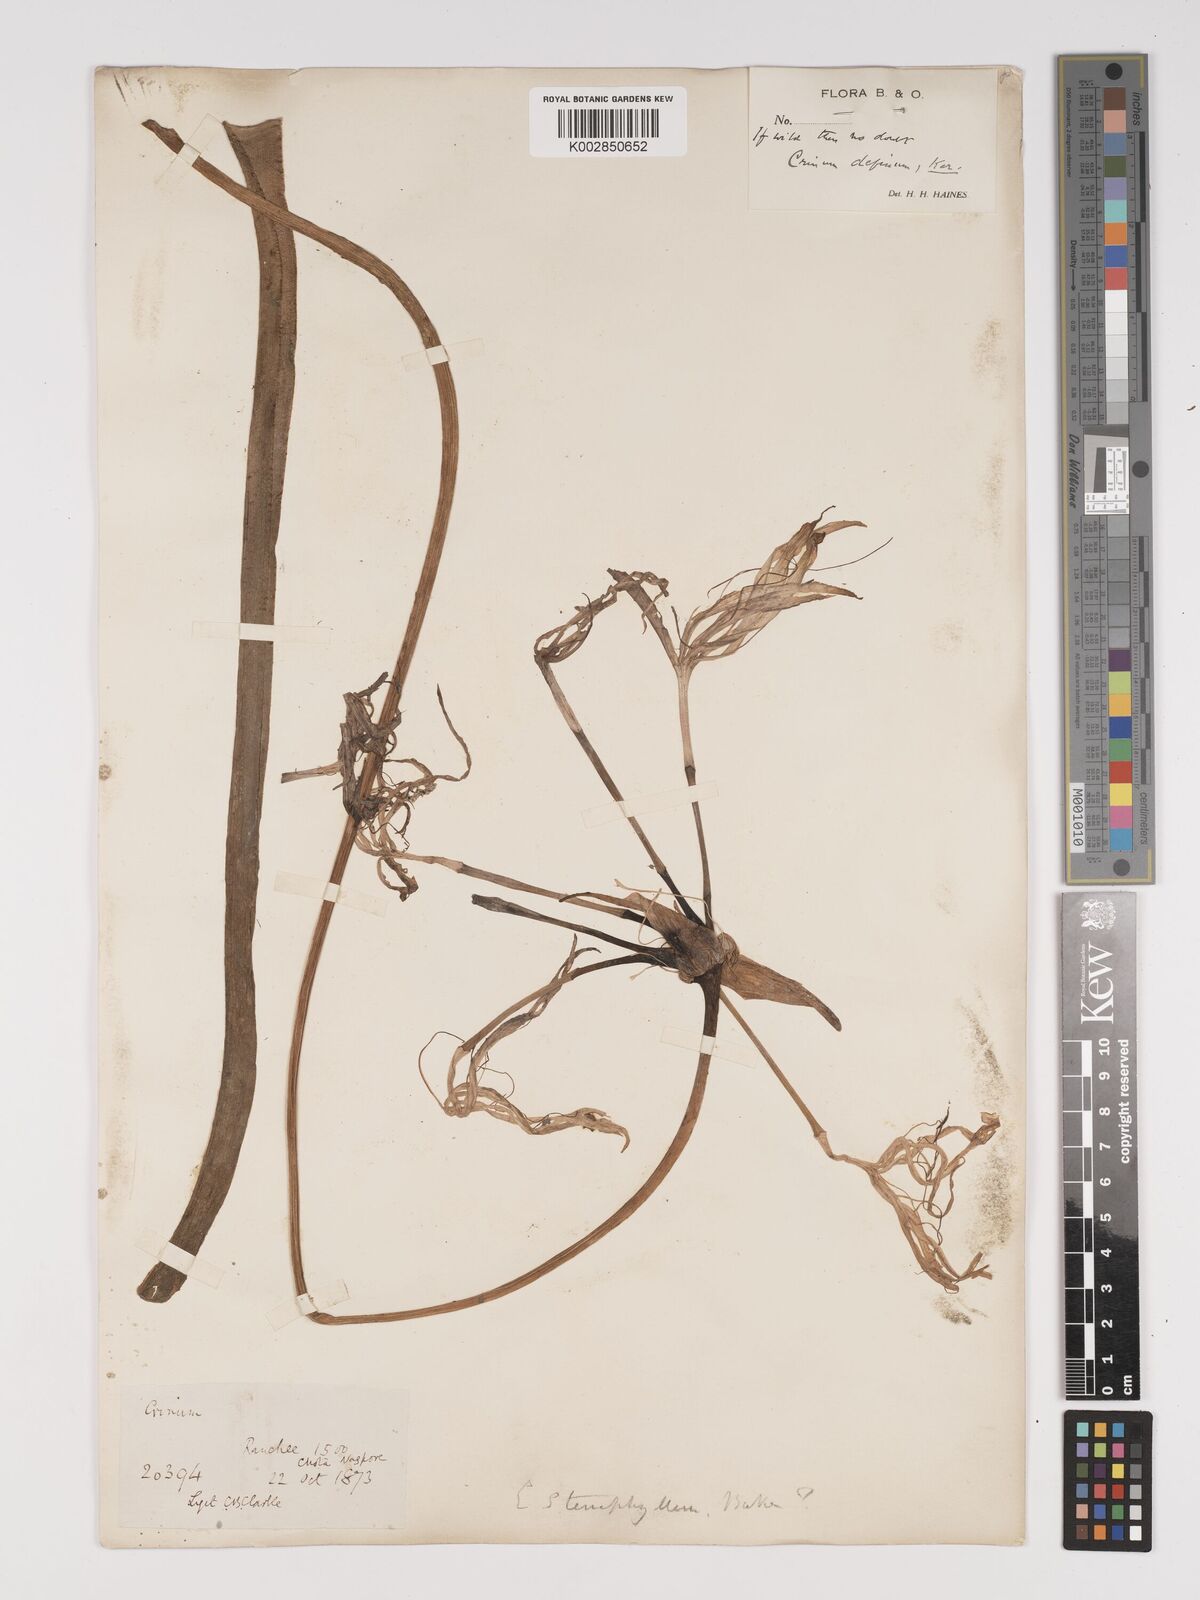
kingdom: Plantae
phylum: Tracheophyta
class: Liliopsida
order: Asparagales
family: Amaryllidaceae
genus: Crinum
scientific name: Crinum
